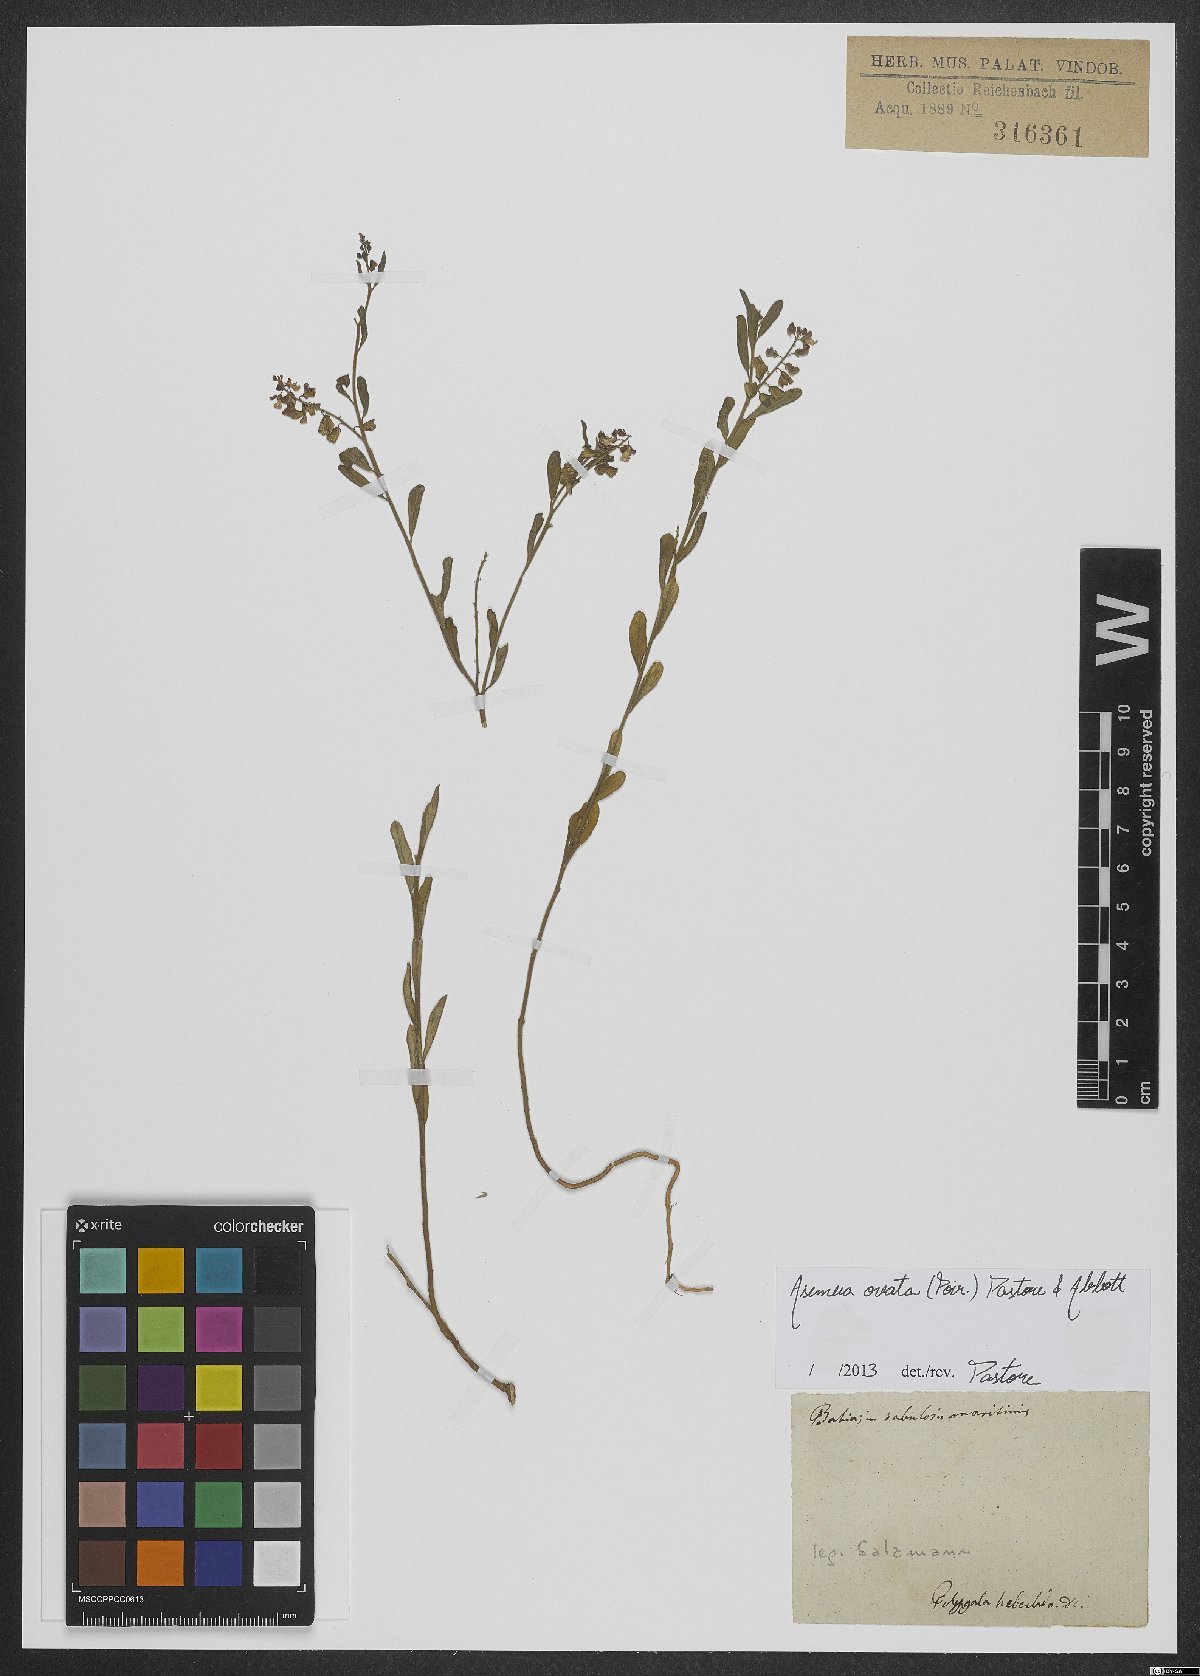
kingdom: Plantae
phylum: Tracheophyta
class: Magnoliopsida
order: Fabales
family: Polygalaceae
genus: Asemeia
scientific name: Asemeia ovata
